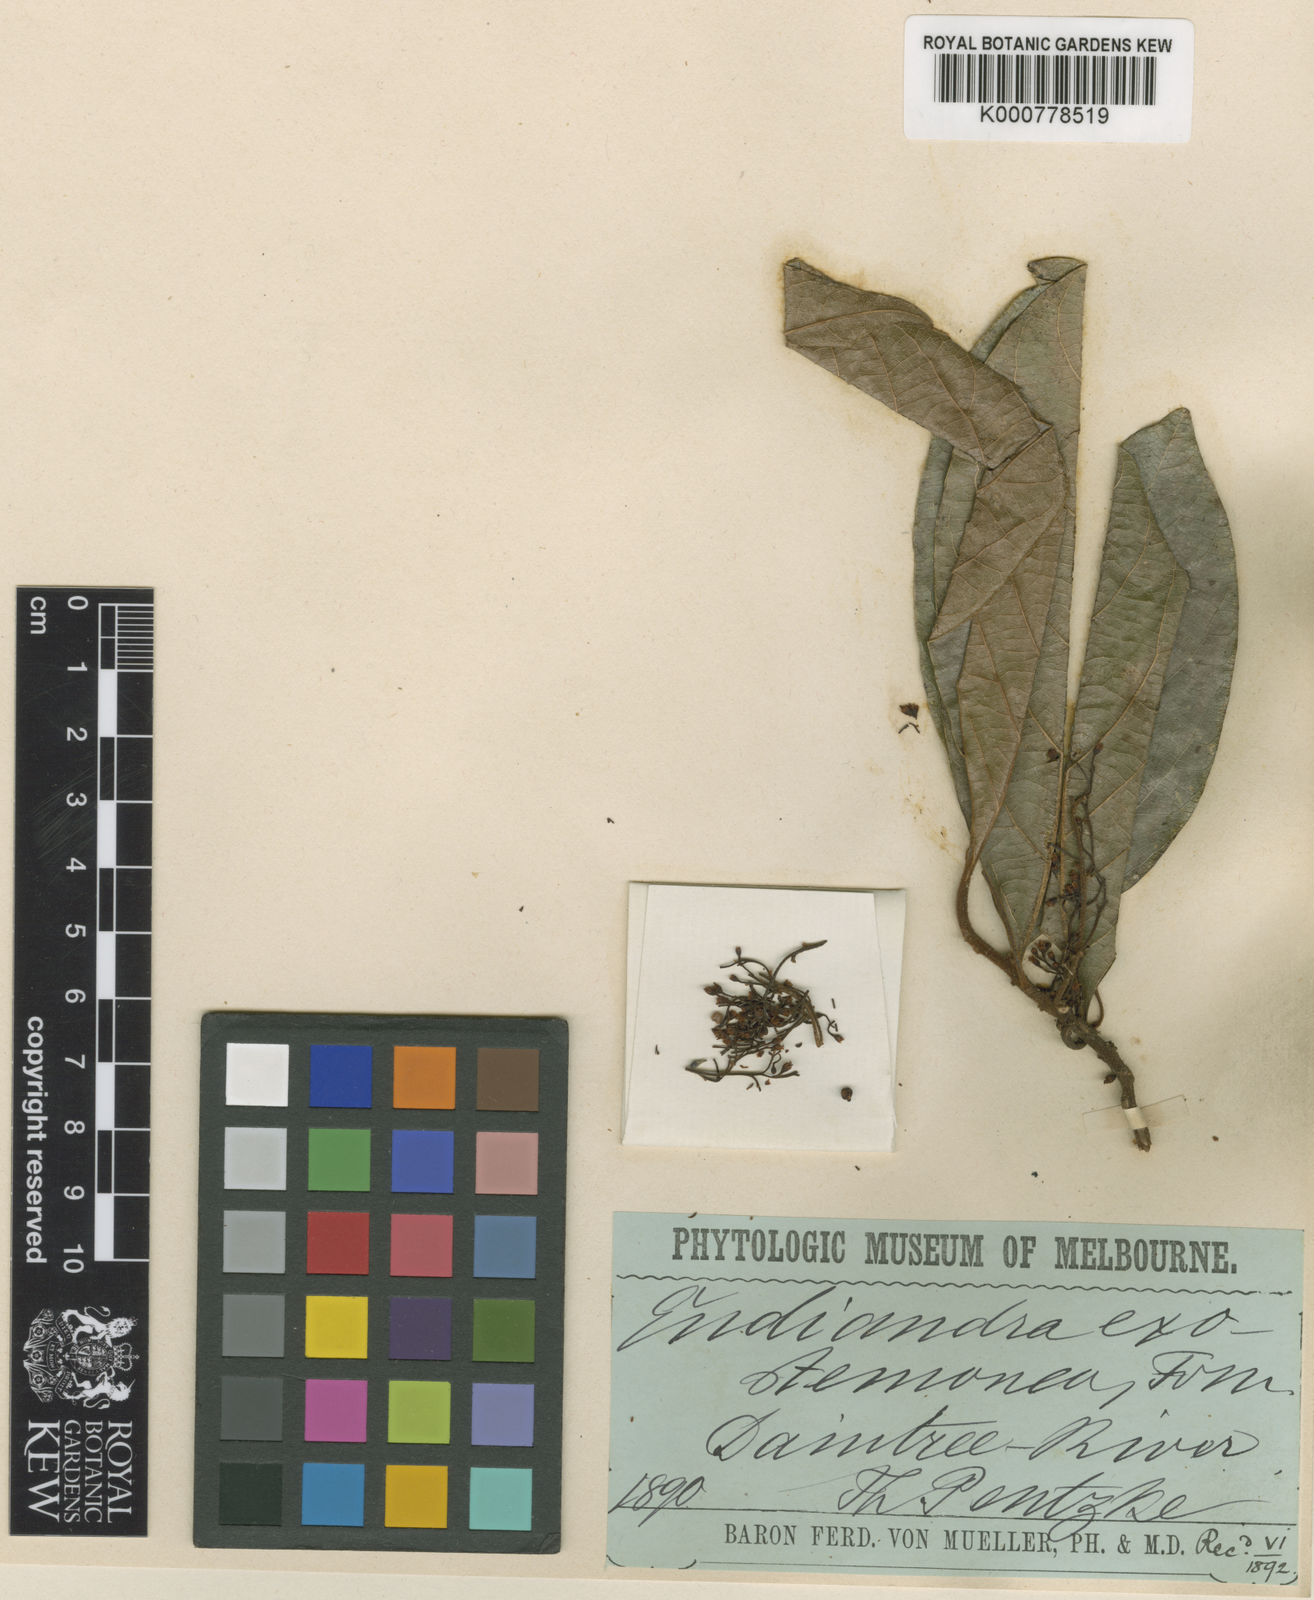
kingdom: Plantae
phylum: Tracheophyta
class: Magnoliopsida
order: Laurales
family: Lauraceae
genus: Endiandra
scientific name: Endiandra insignis
